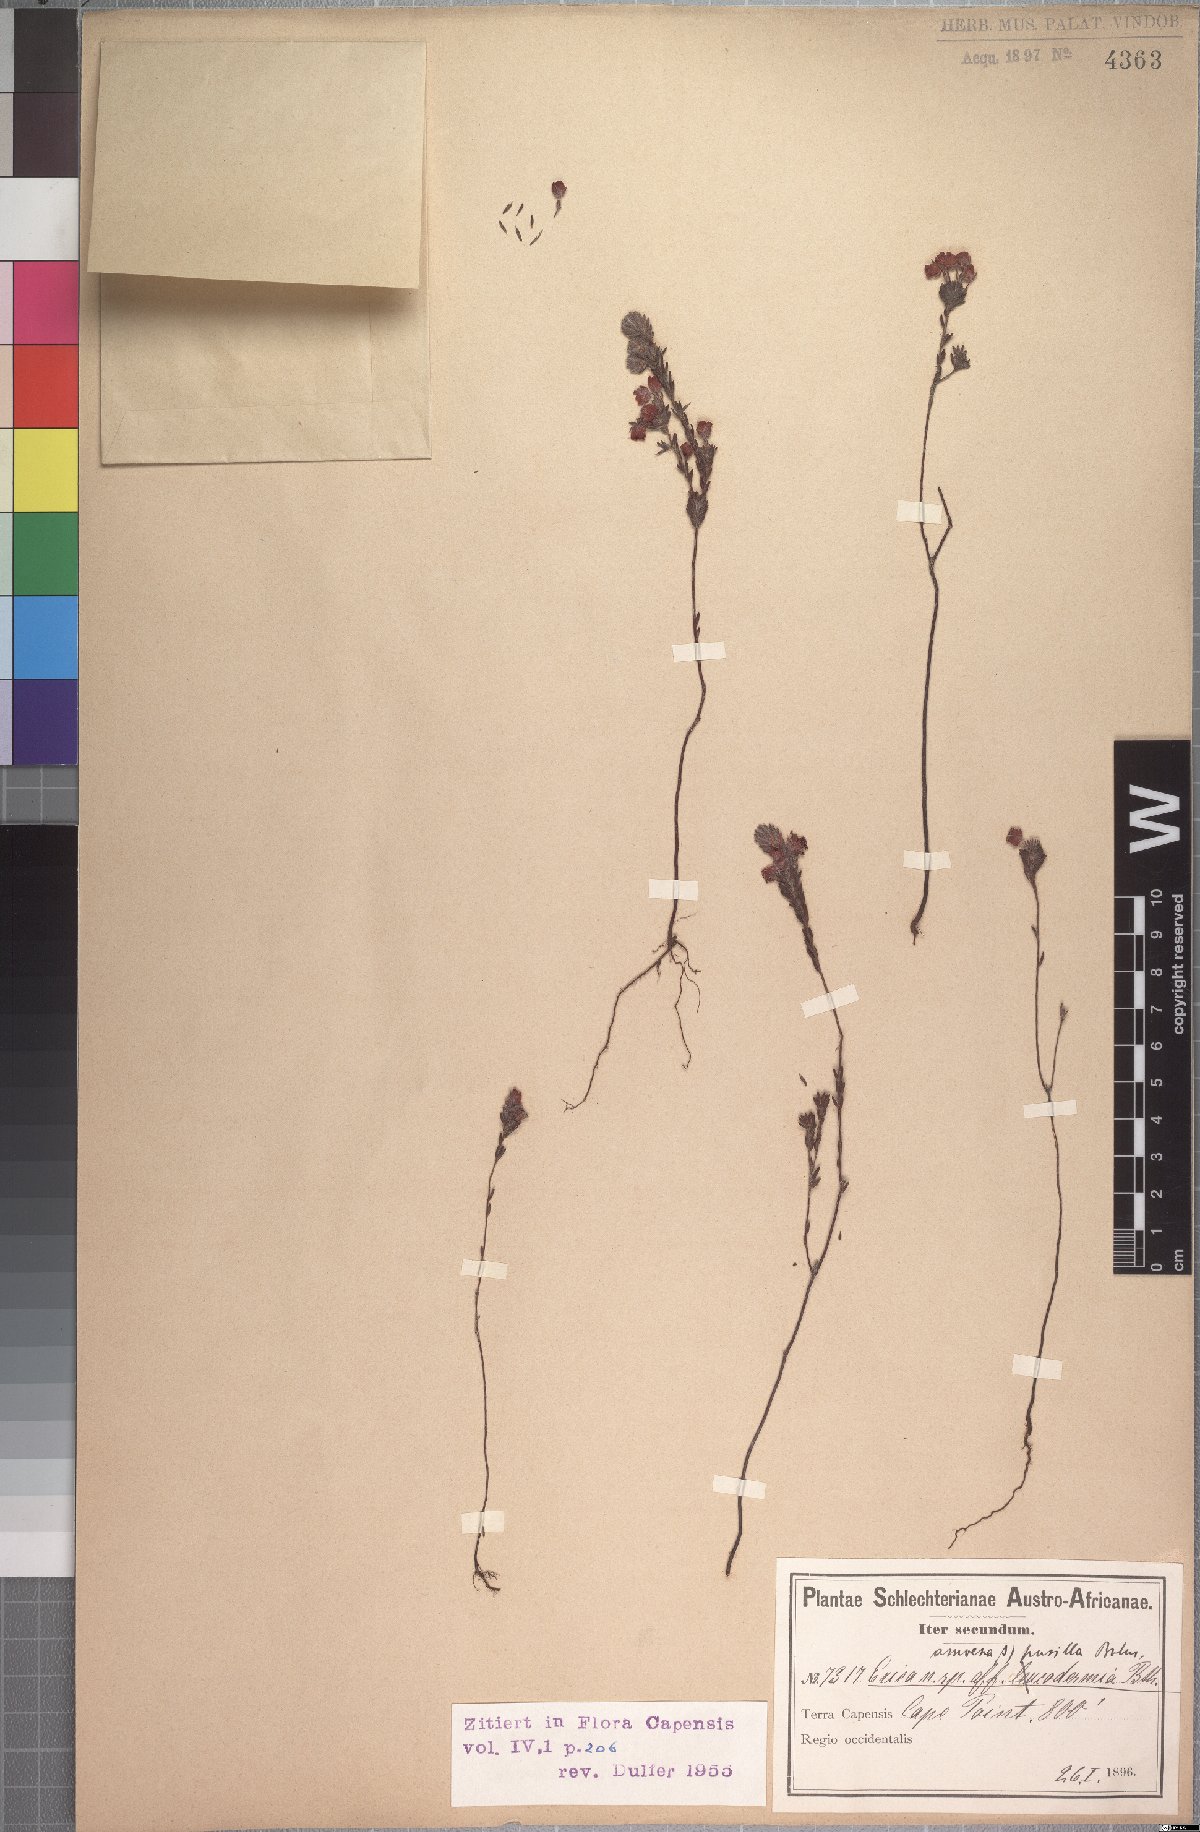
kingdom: Plantae
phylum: Tracheophyta
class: Magnoliopsida
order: Ericales
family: Ericaceae
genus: Erica
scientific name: Erica amoena
